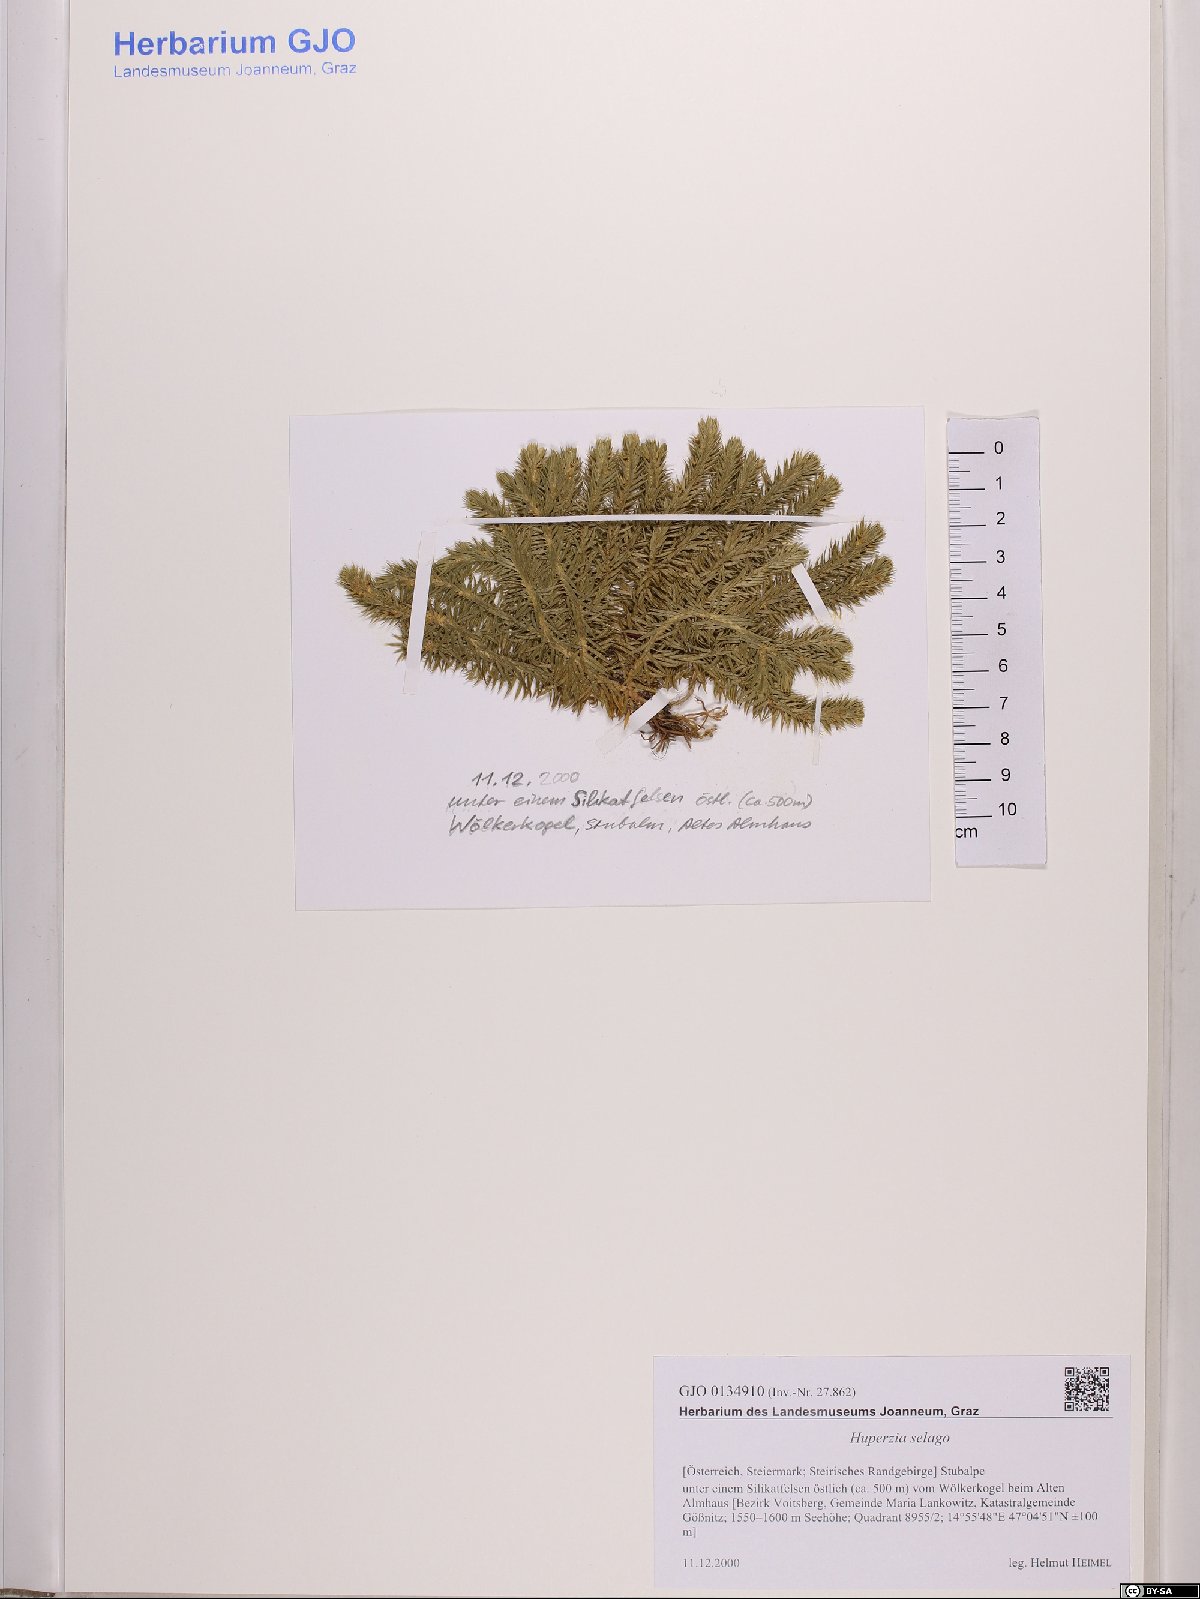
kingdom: Plantae
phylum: Tracheophyta
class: Lycopodiopsida
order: Lycopodiales
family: Lycopodiaceae
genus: Huperzia
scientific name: Huperzia selago
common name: Northern firmoss
